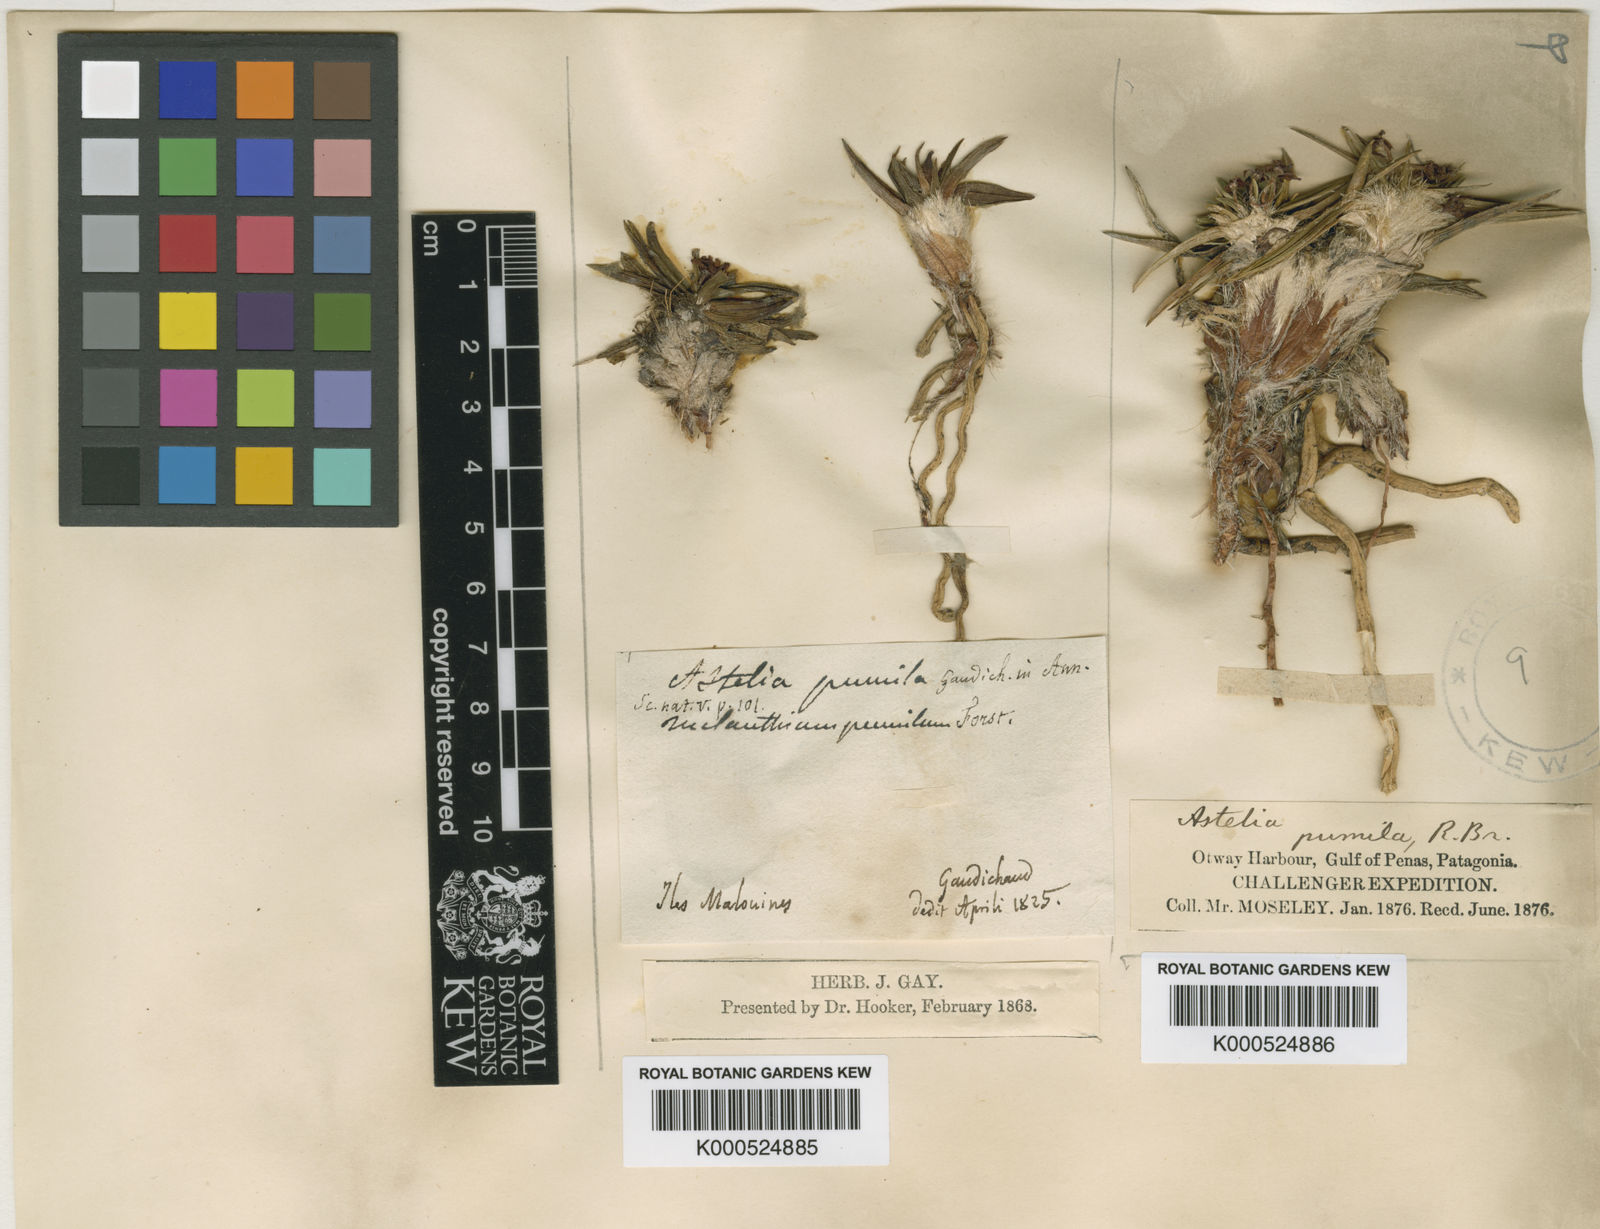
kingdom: Plantae
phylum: Tracheophyta
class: Liliopsida
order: Asparagales
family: Asteliaceae
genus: Astelia
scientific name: Astelia pumila
